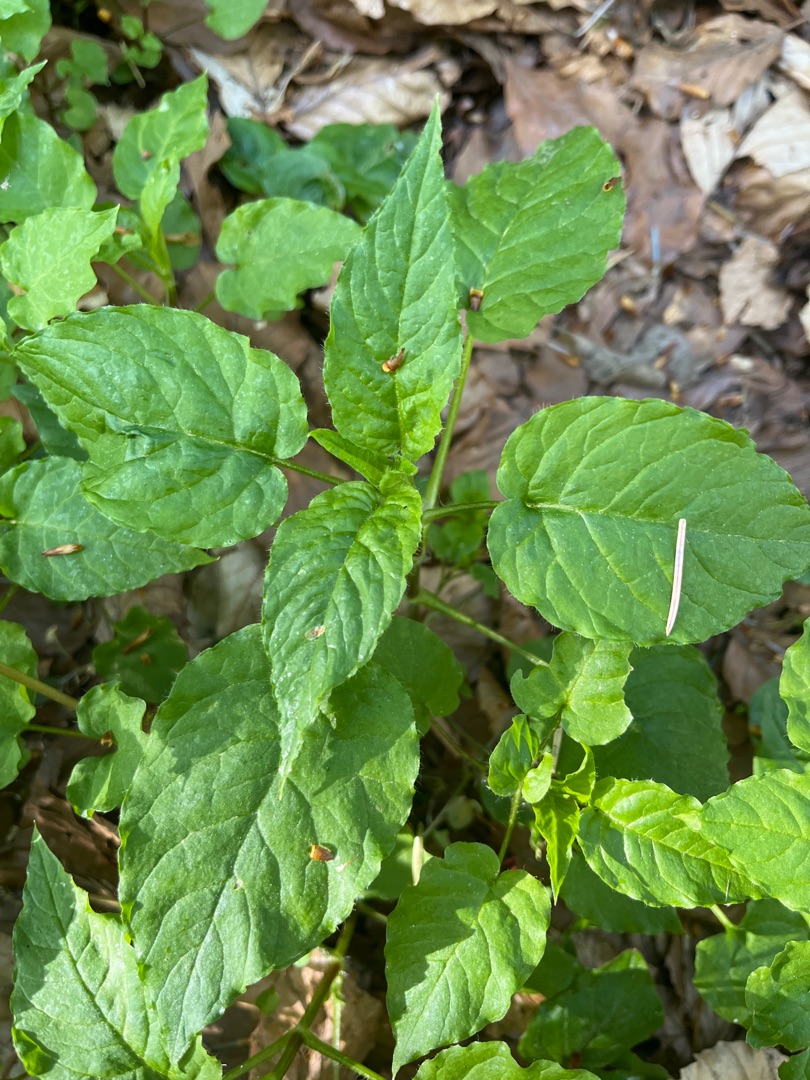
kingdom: Plantae
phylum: Tracheophyta
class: Magnoliopsida
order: Myrtales
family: Onagraceae
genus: Circaea
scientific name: Circaea lutetiana
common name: Dunet steffensurt
